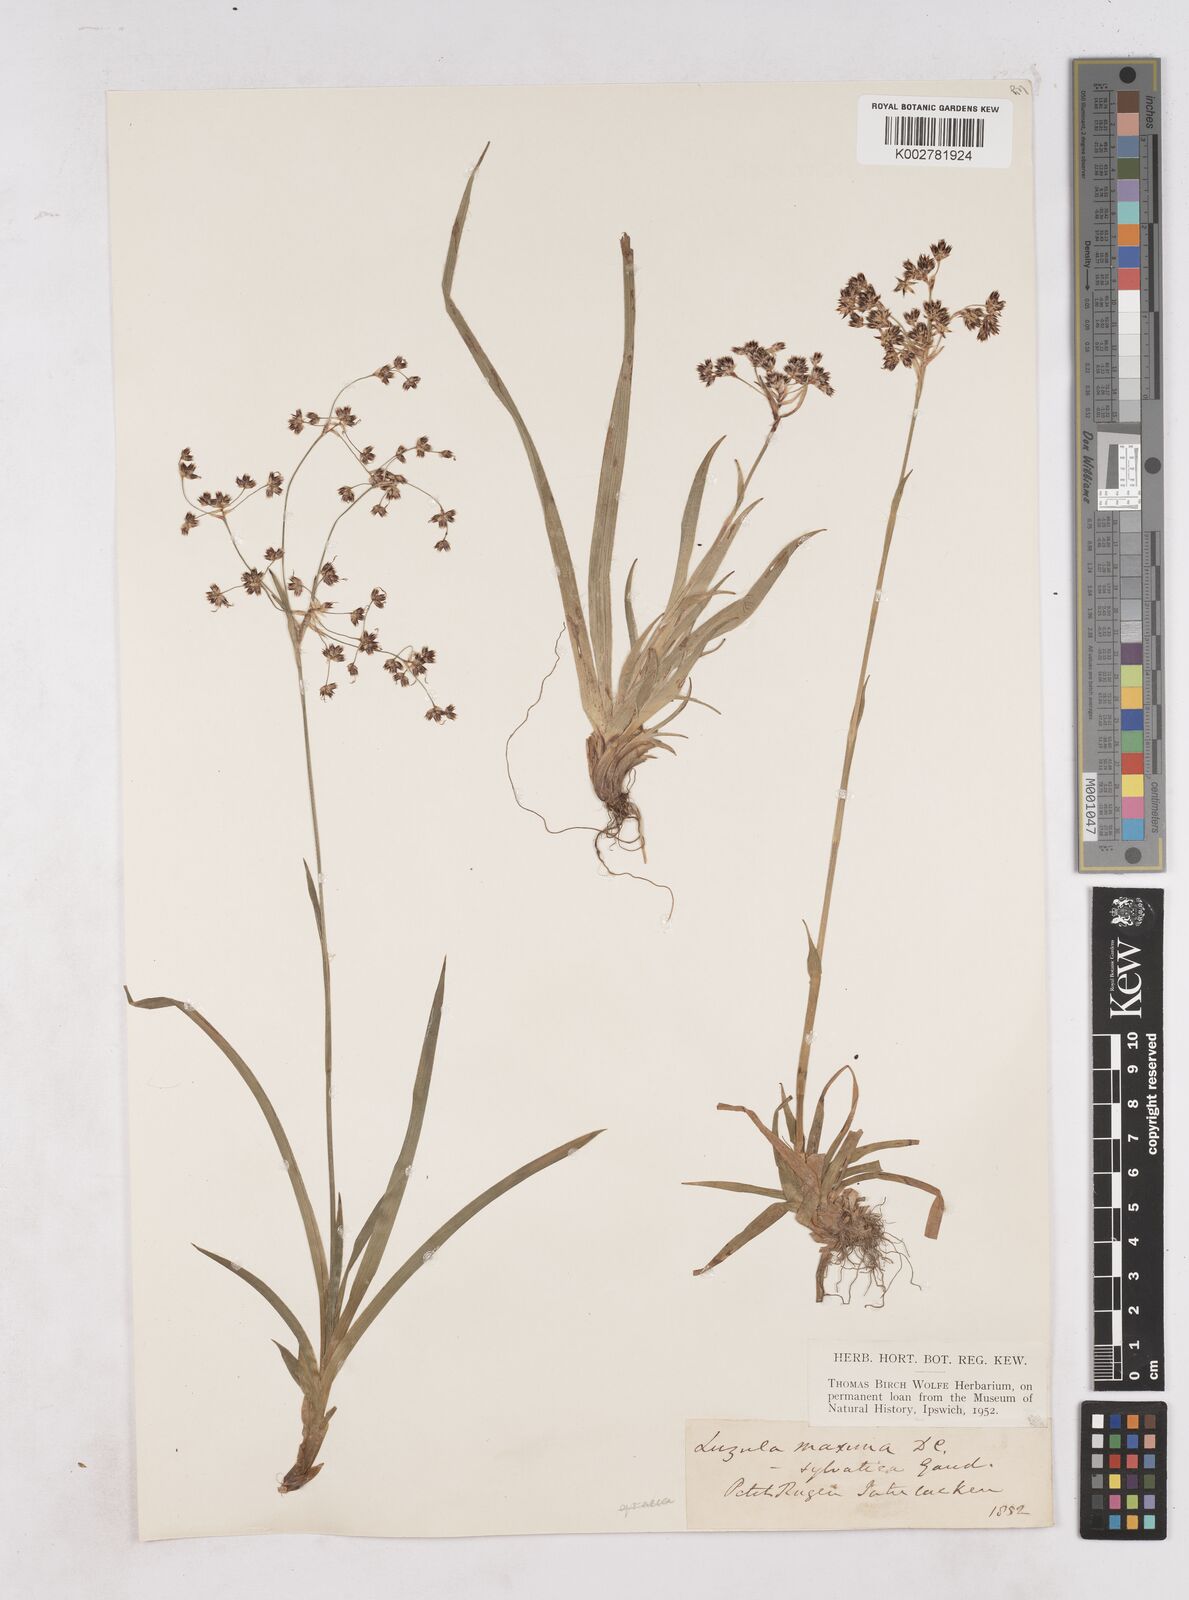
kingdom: Plantae
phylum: Tracheophyta
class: Liliopsida
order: Poales
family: Juncaceae
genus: Luzula
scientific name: Luzula sylvatica
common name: Great wood-rush
